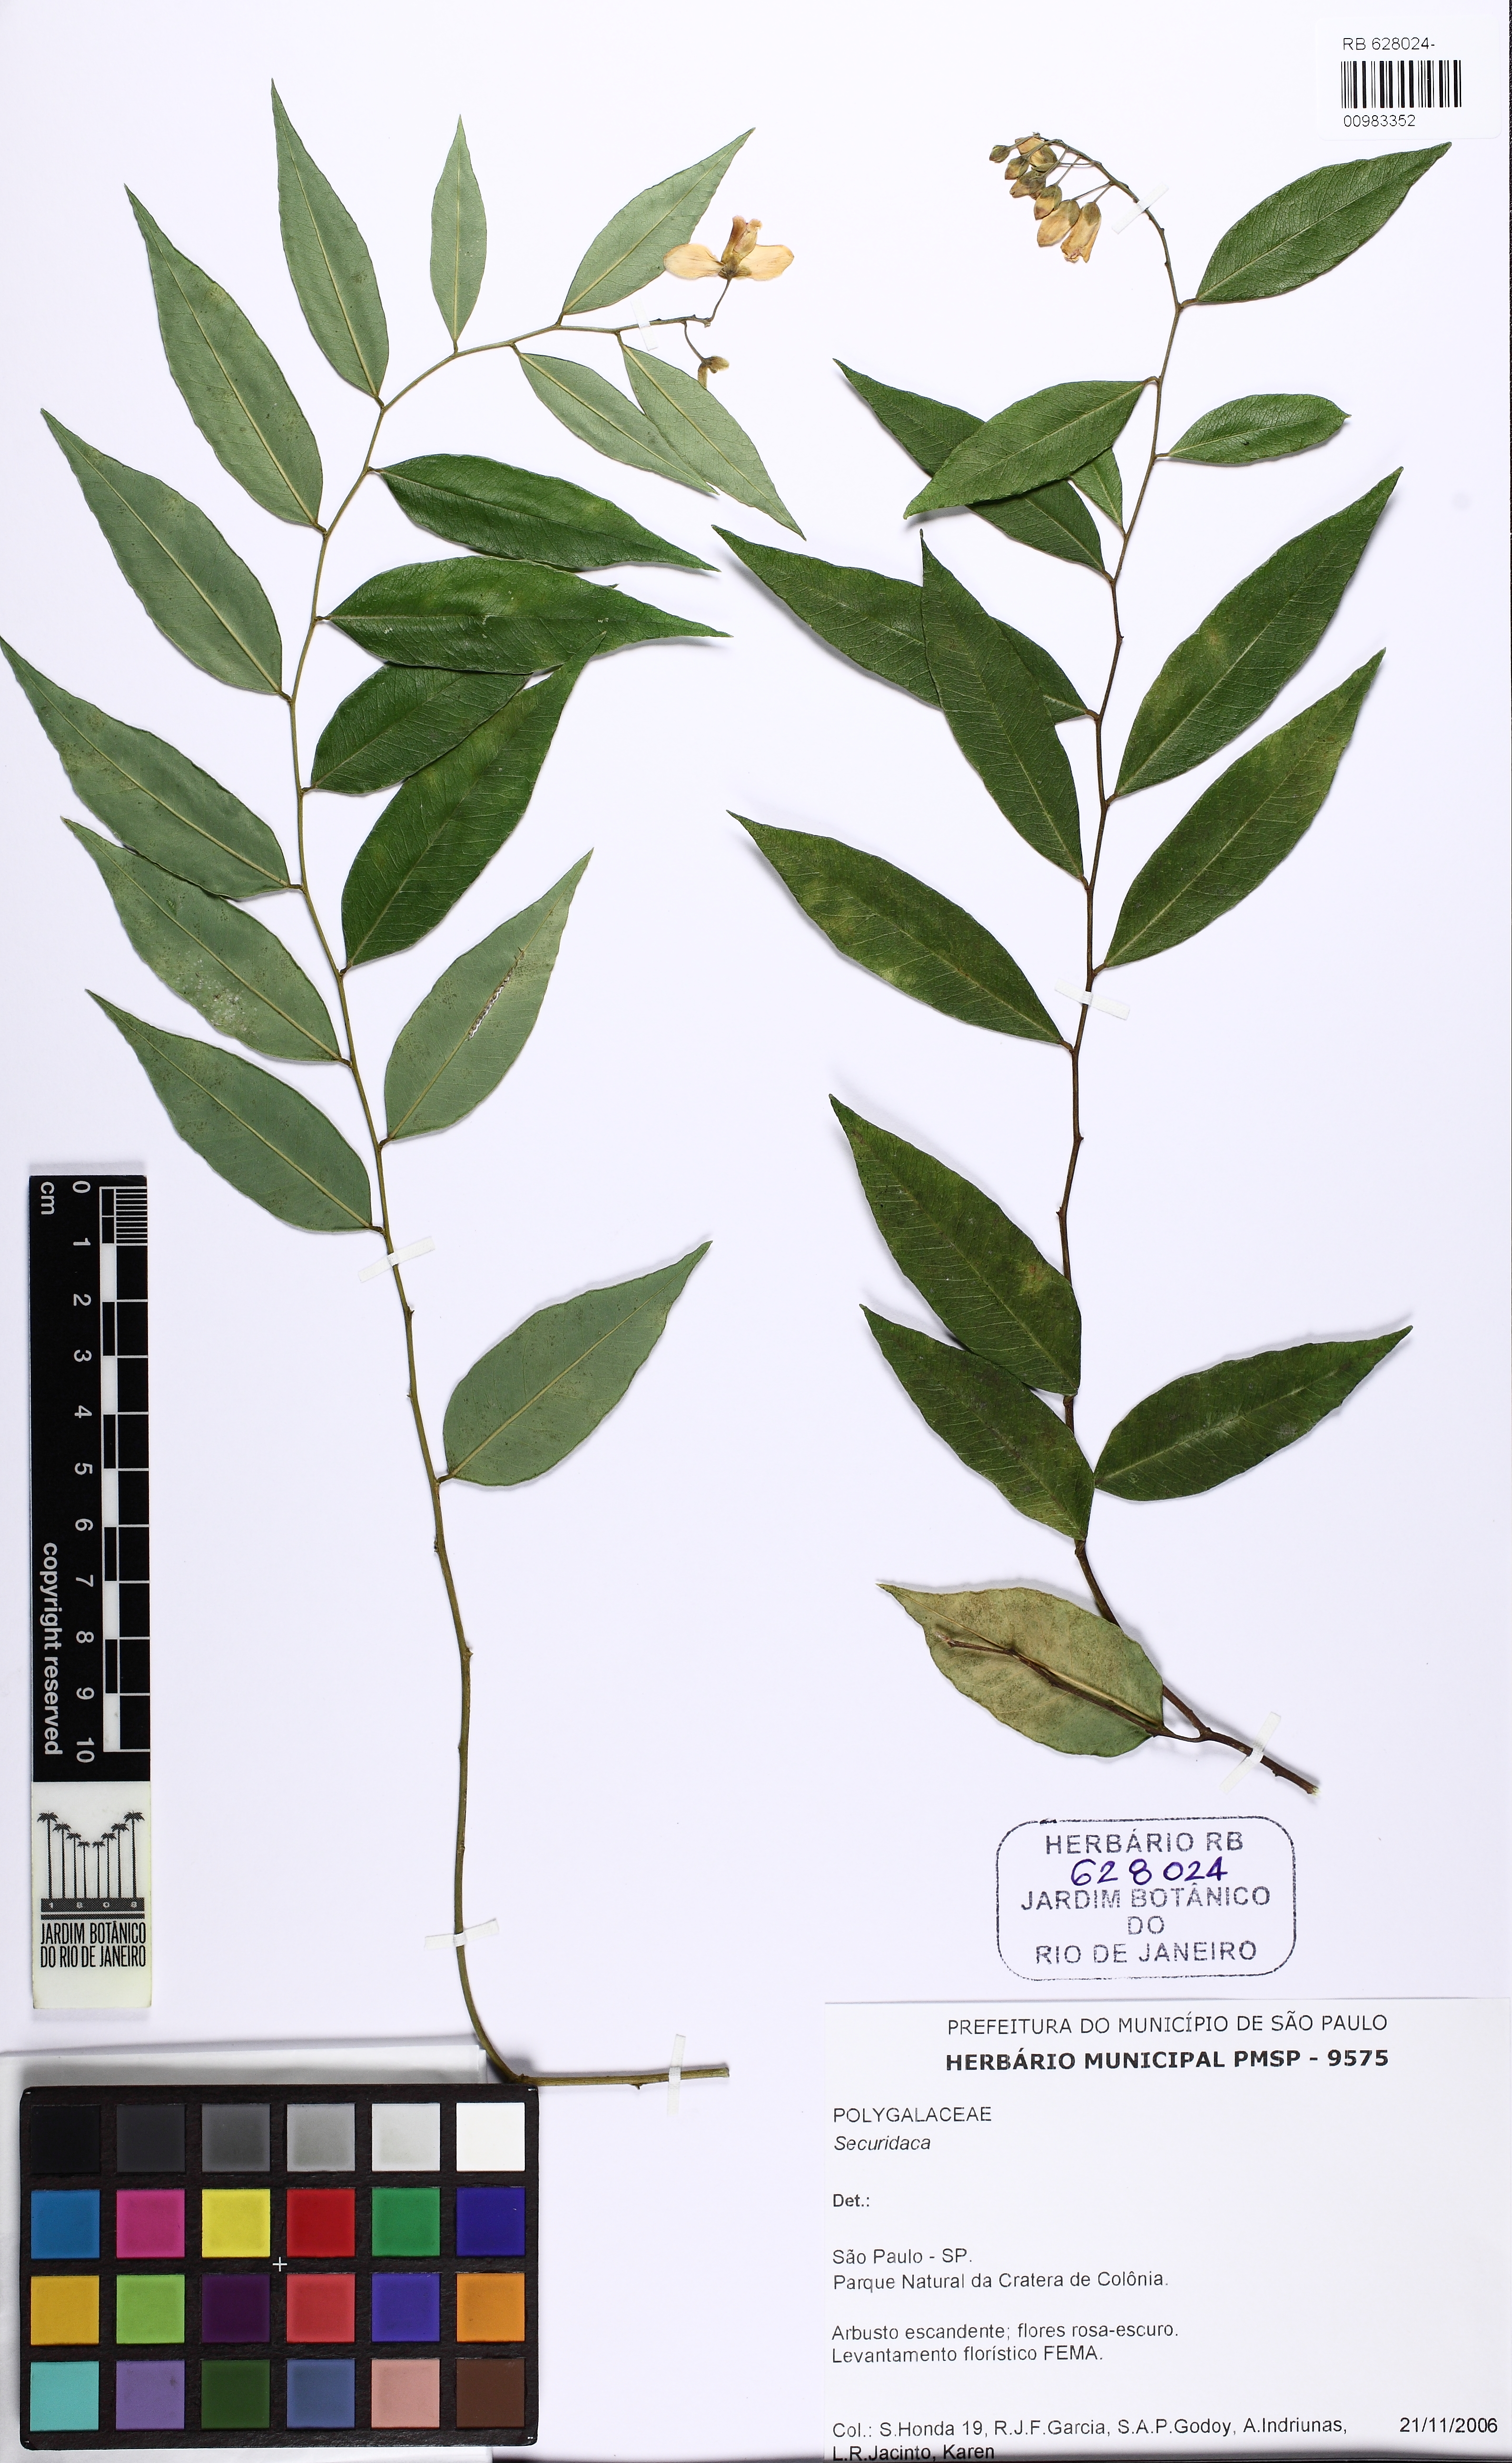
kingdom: Plantae
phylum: Tracheophyta
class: Magnoliopsida
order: Fabales
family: Polygalaceae
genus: Caamembeca
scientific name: Caamembeca
